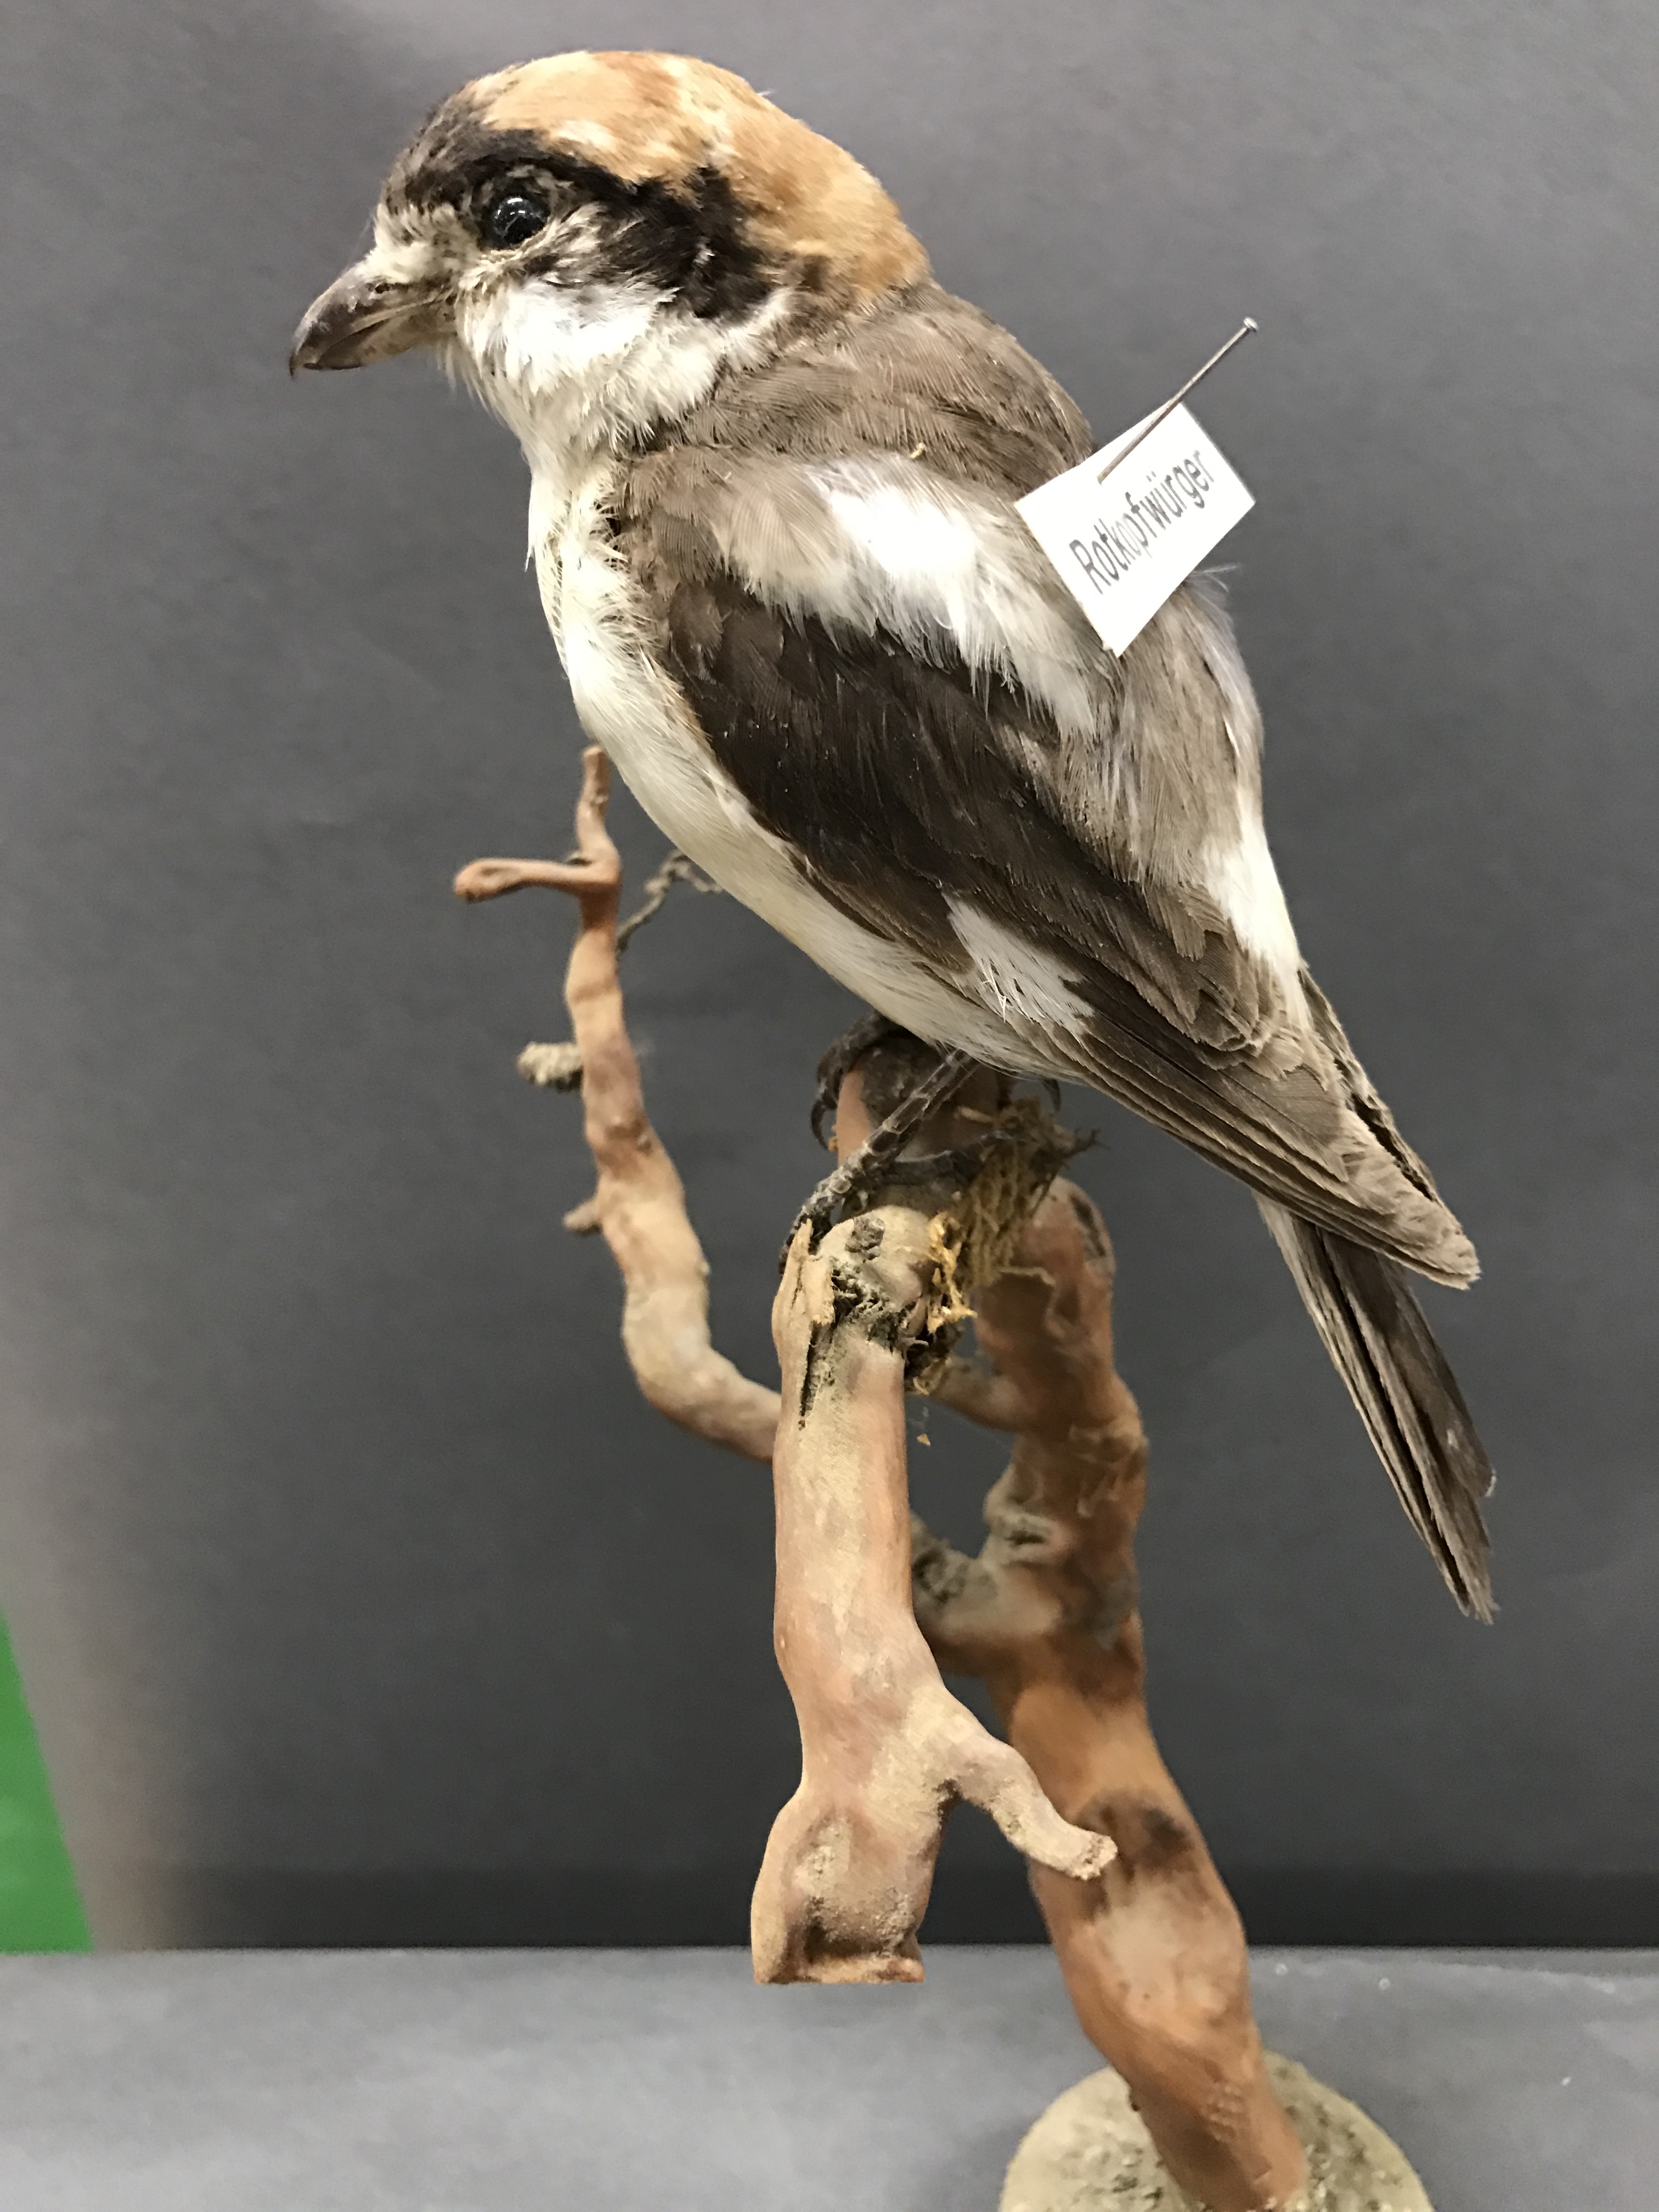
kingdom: Animalia
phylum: Chordata
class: Aves
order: Passeriformes
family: Laniidae
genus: Lanius
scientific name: Lanius senator
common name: Woodchat shrike
